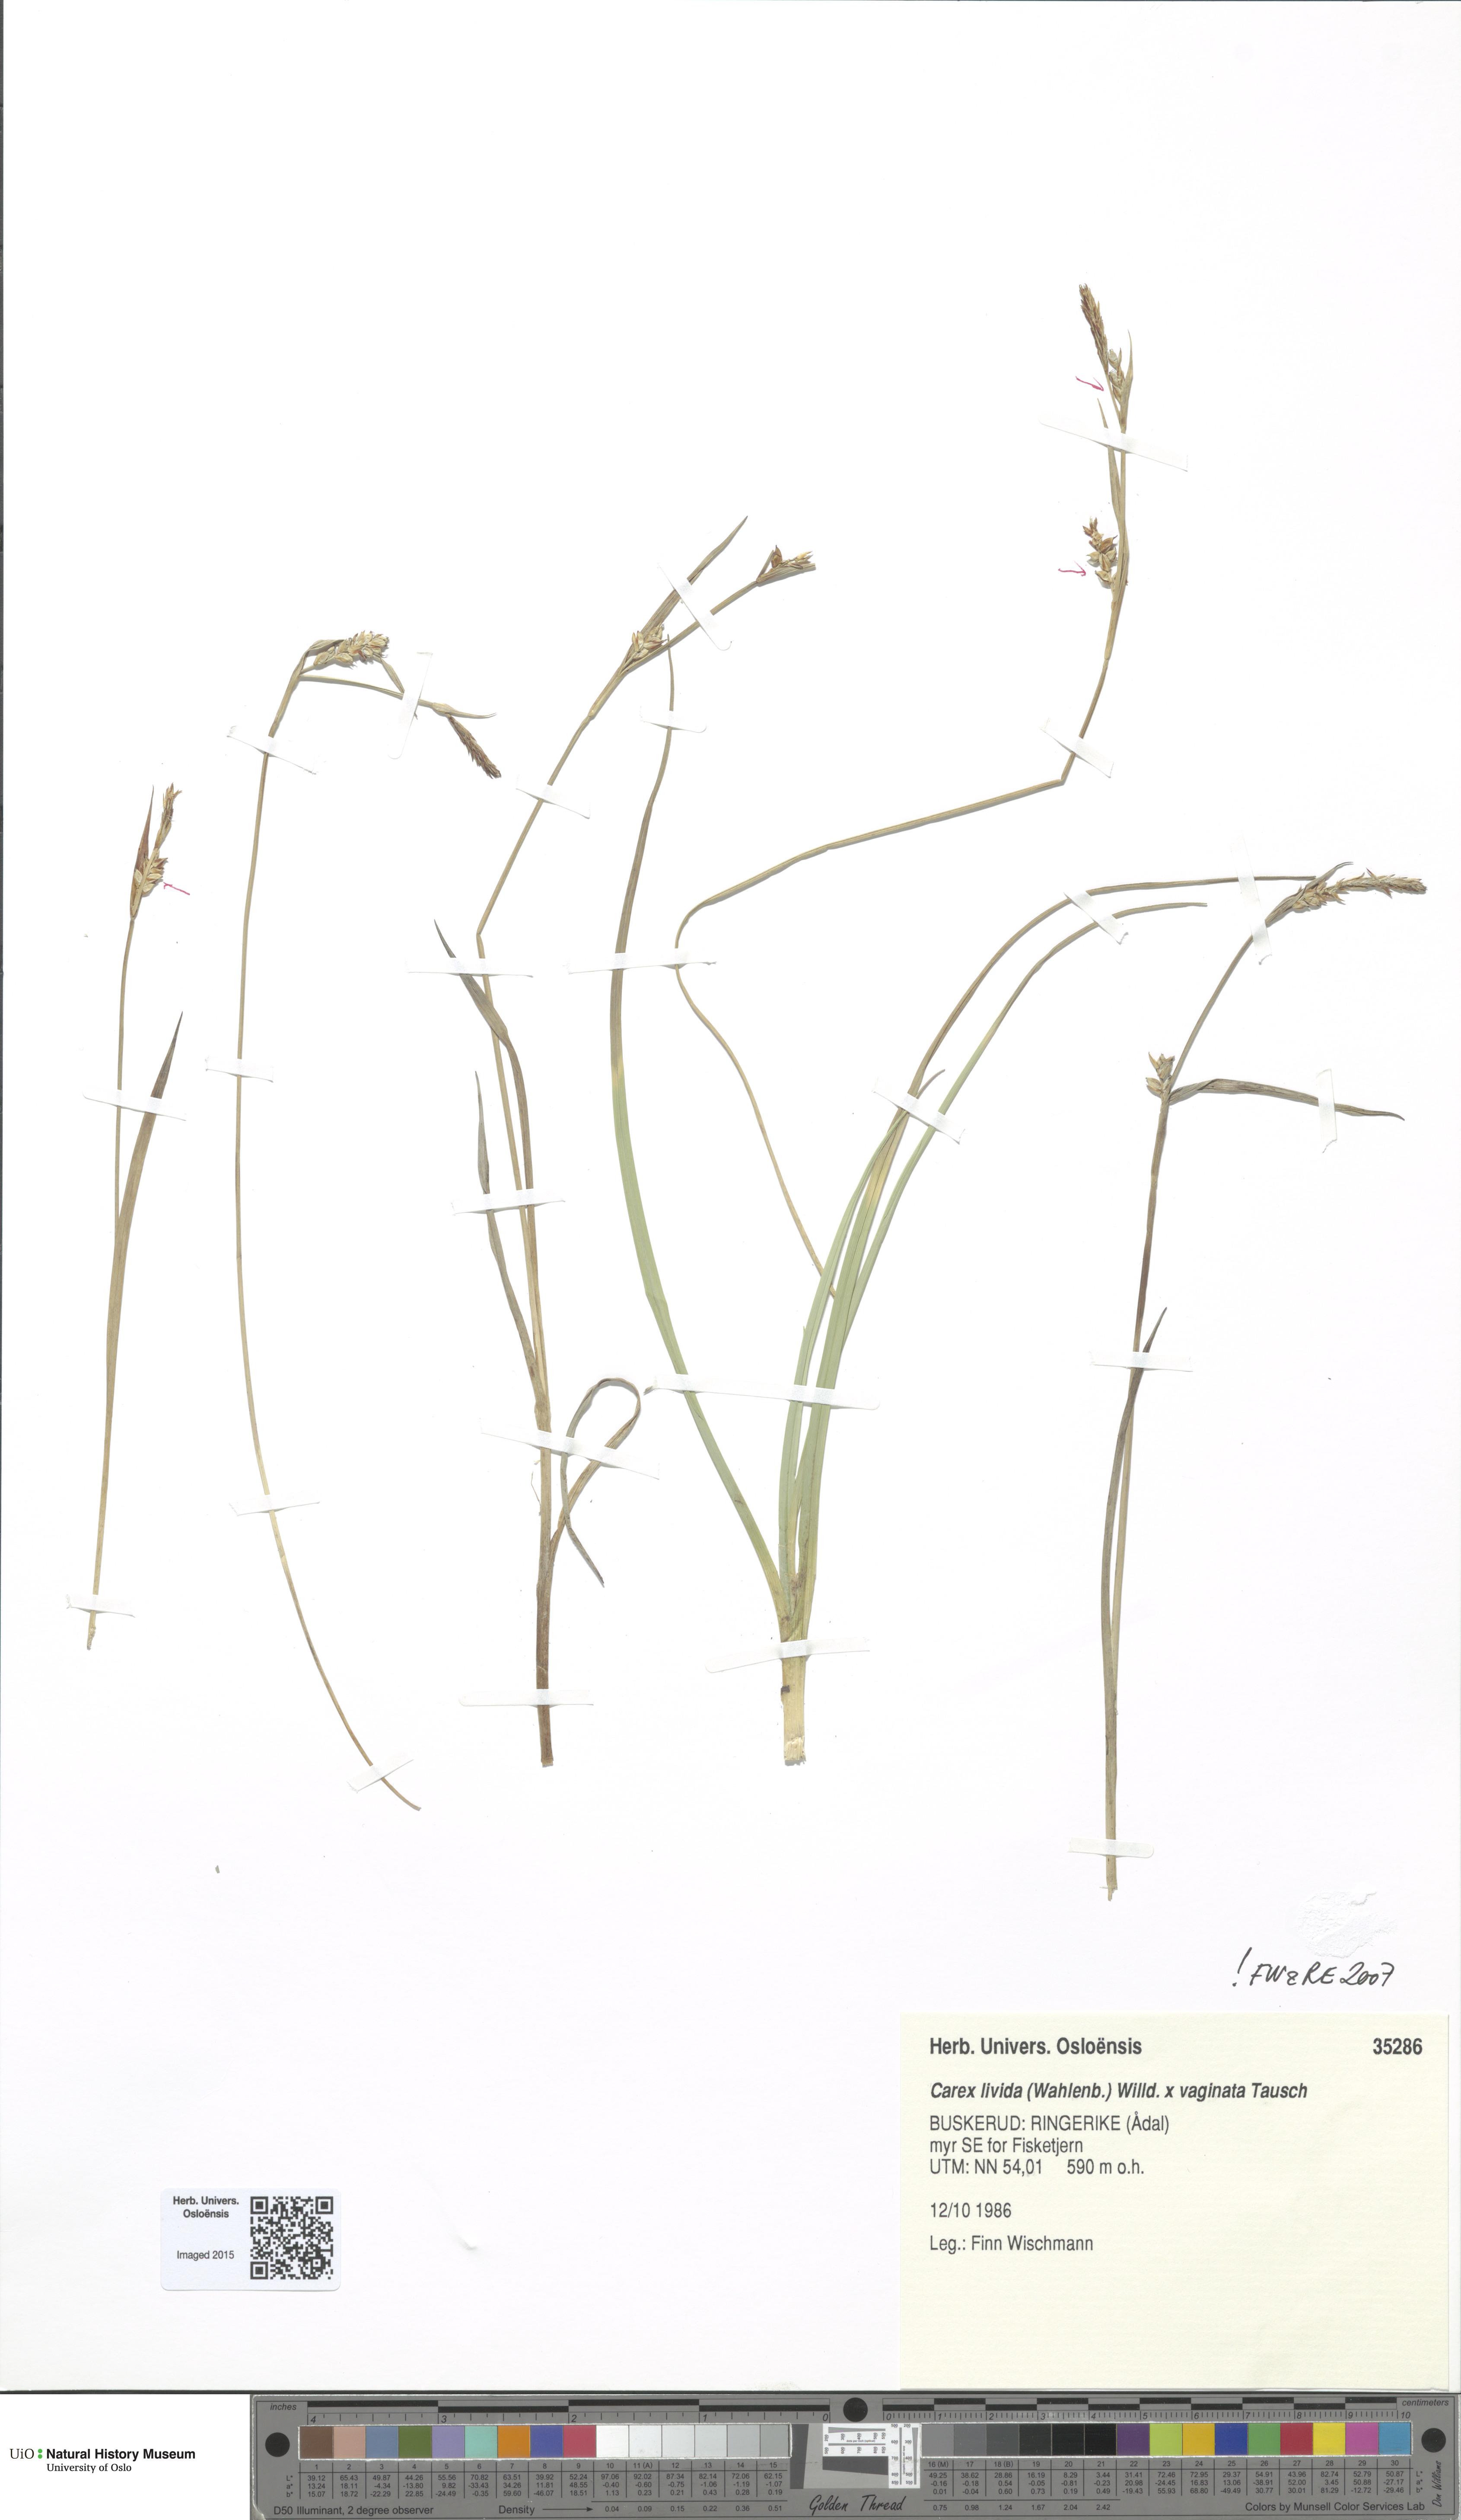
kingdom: Plantae
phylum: Tracheophyta
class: Liliopsida
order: Poales
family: Cyperaceae
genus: Carex
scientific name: Carex
